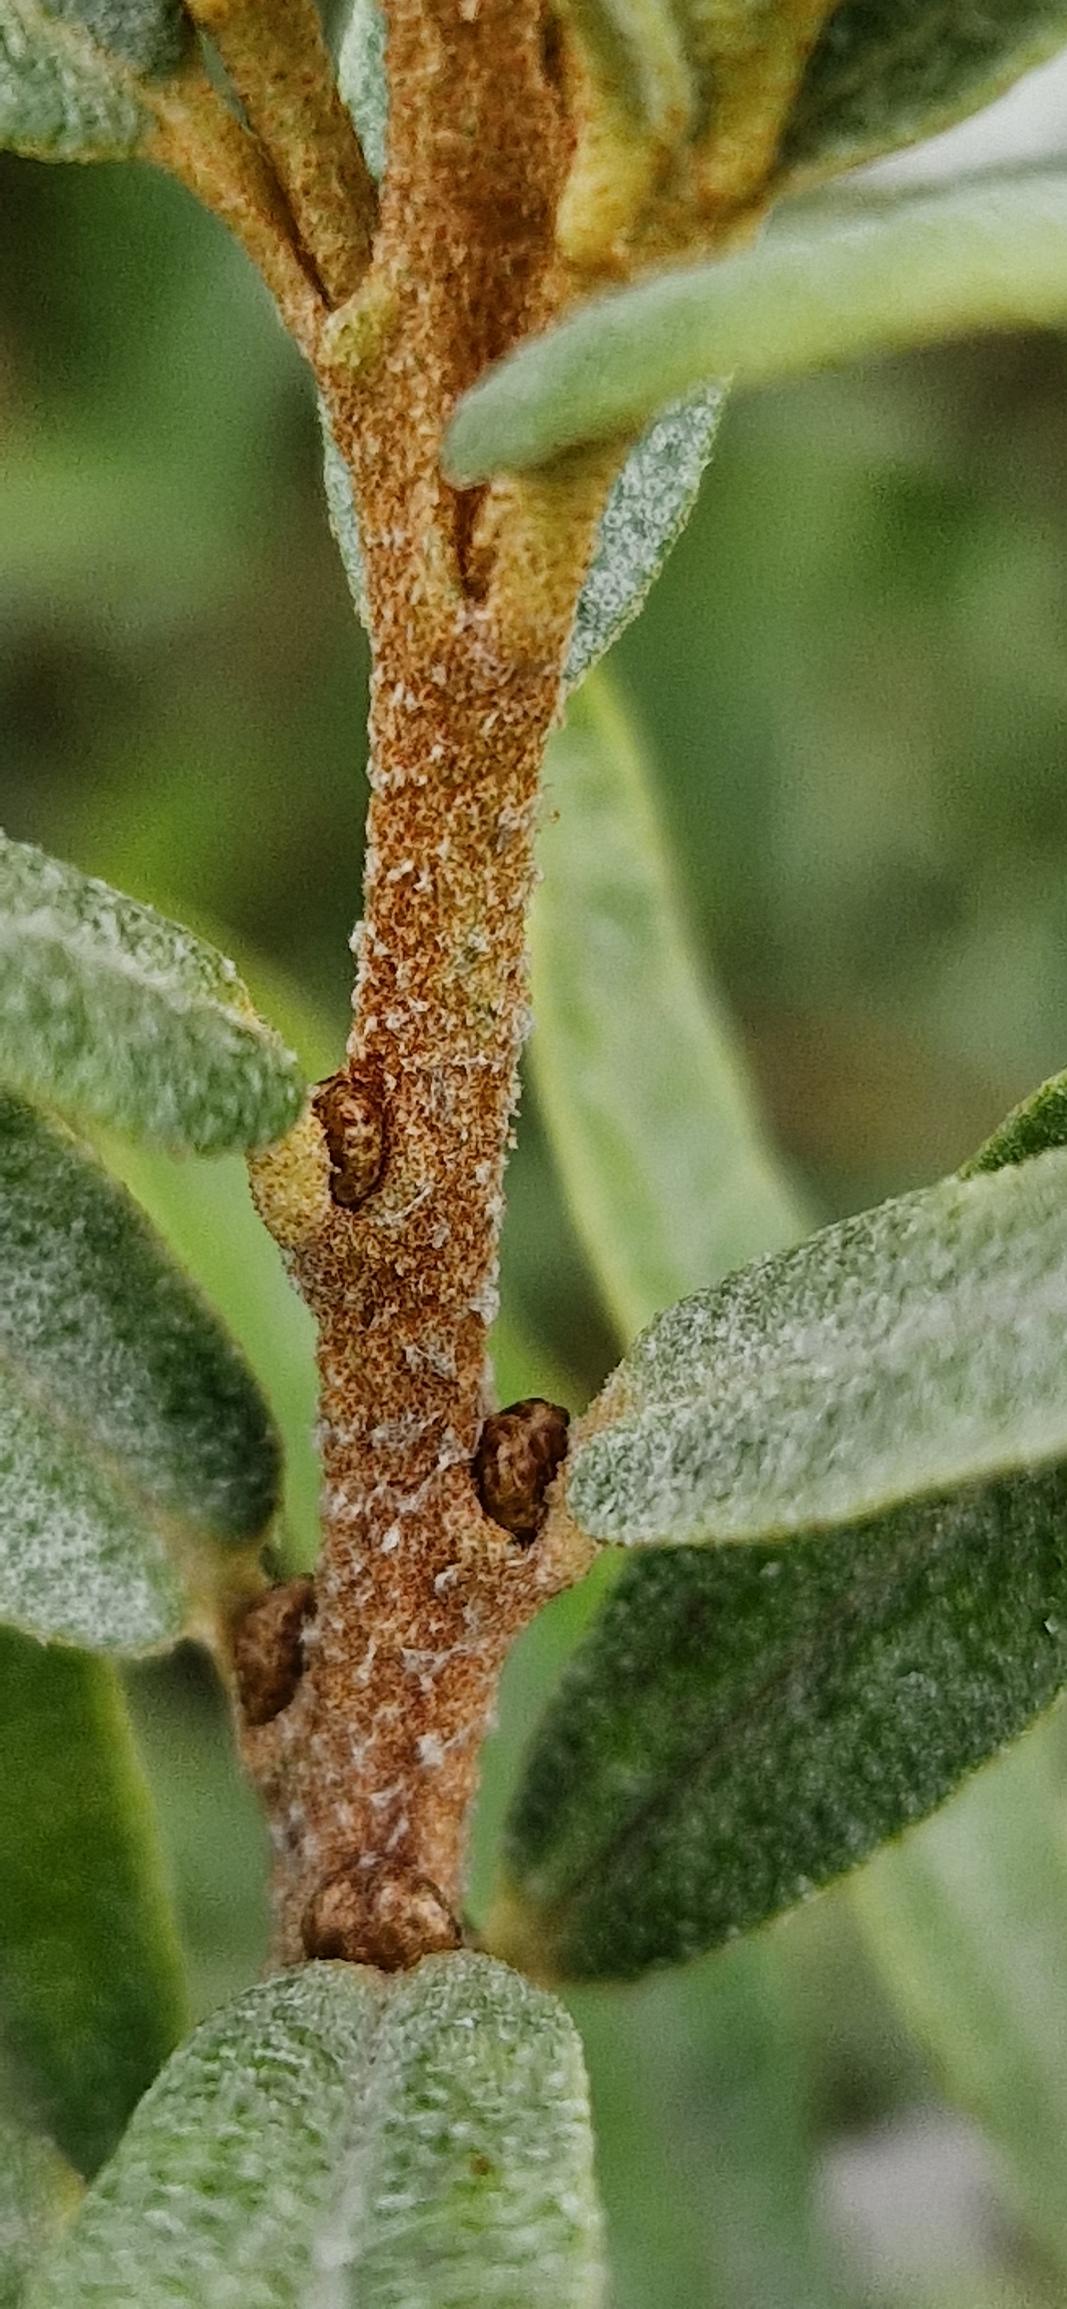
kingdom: Plantae
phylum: Tracheophyta
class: Magnoliopsida
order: Rosales
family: Elaeagnaceae
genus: Hippophae
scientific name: Hippophae rhamnoides
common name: Havtorn
